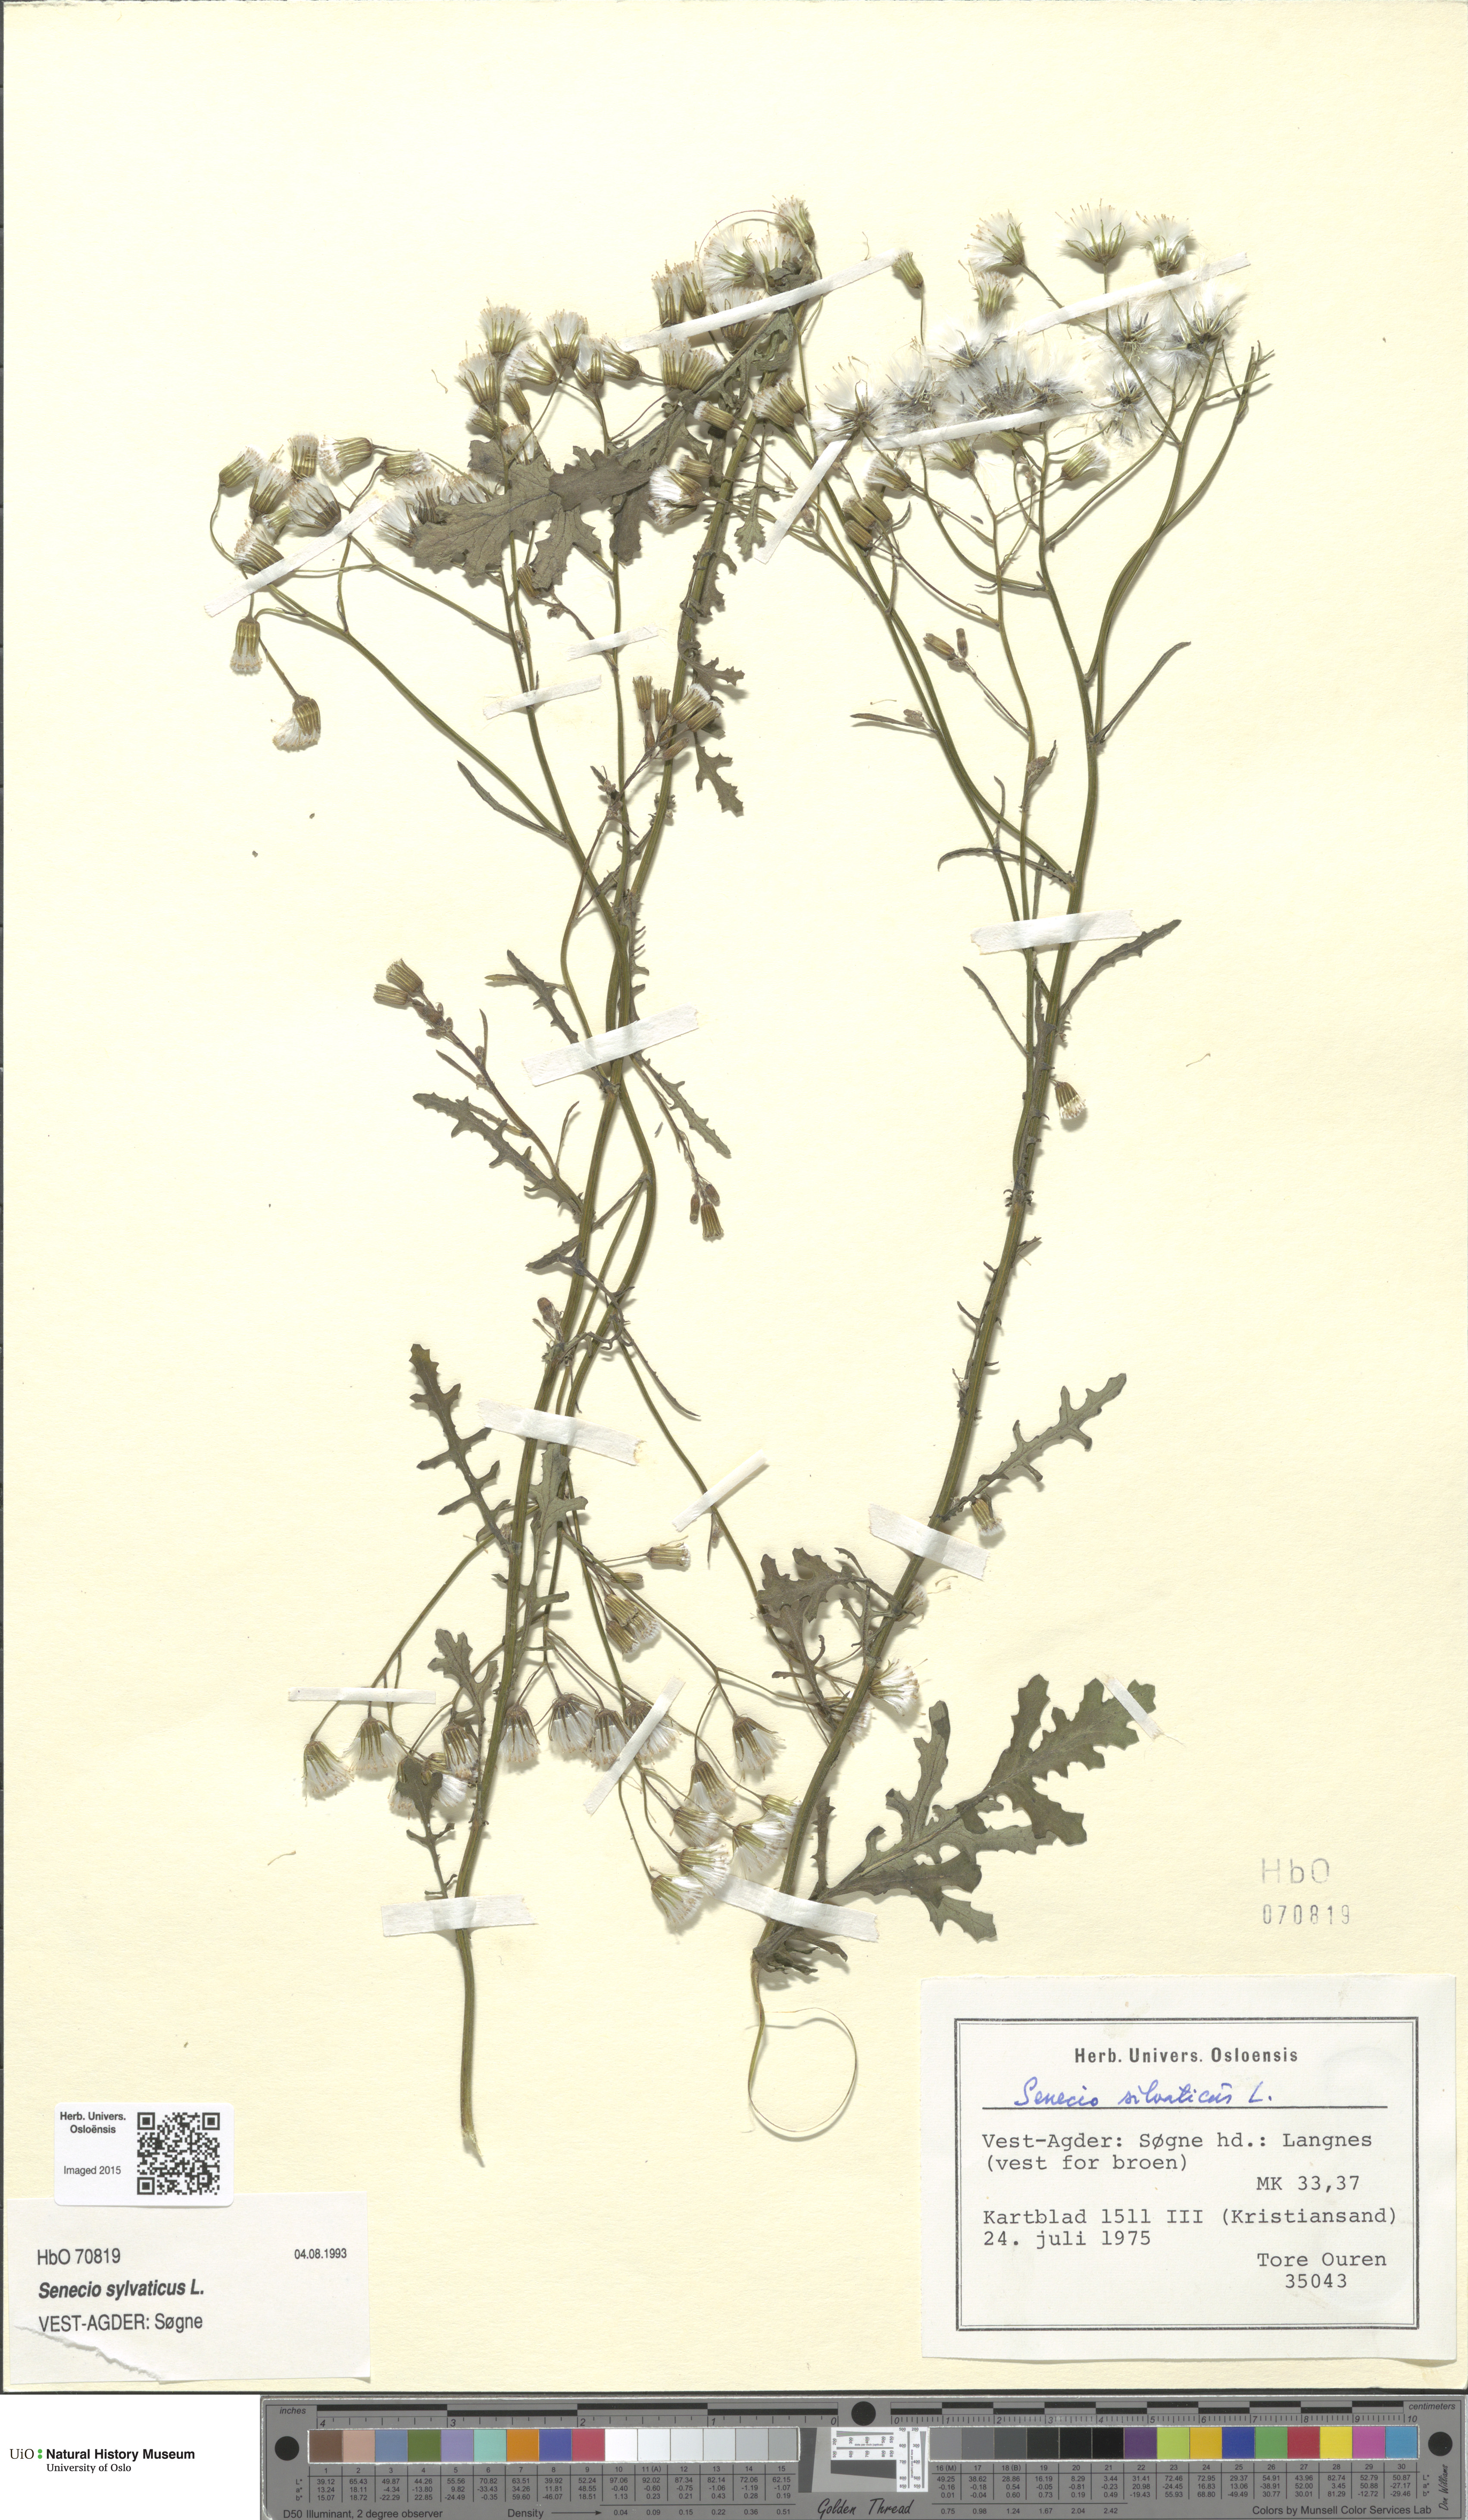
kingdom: Plantae
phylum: Tracheophyta
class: Magnoliopsida
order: Asterales
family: Asteraceae
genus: Senecio
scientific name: Senecio sylvaticus
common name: Woodland ragwort
